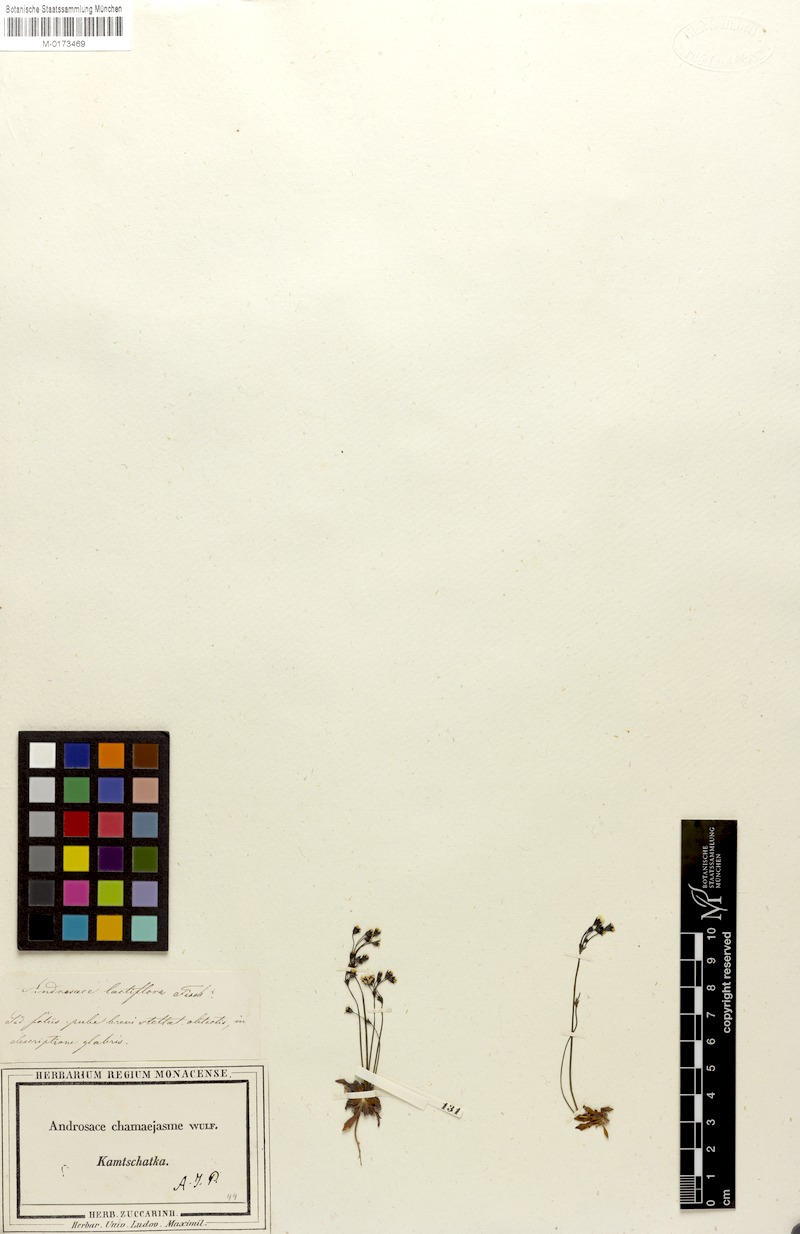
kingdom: Plantae
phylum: Tracheophyta
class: Magnoliopsida
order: Ericales
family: Primulaceae
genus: Androsace
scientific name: Androsace lactiflora
